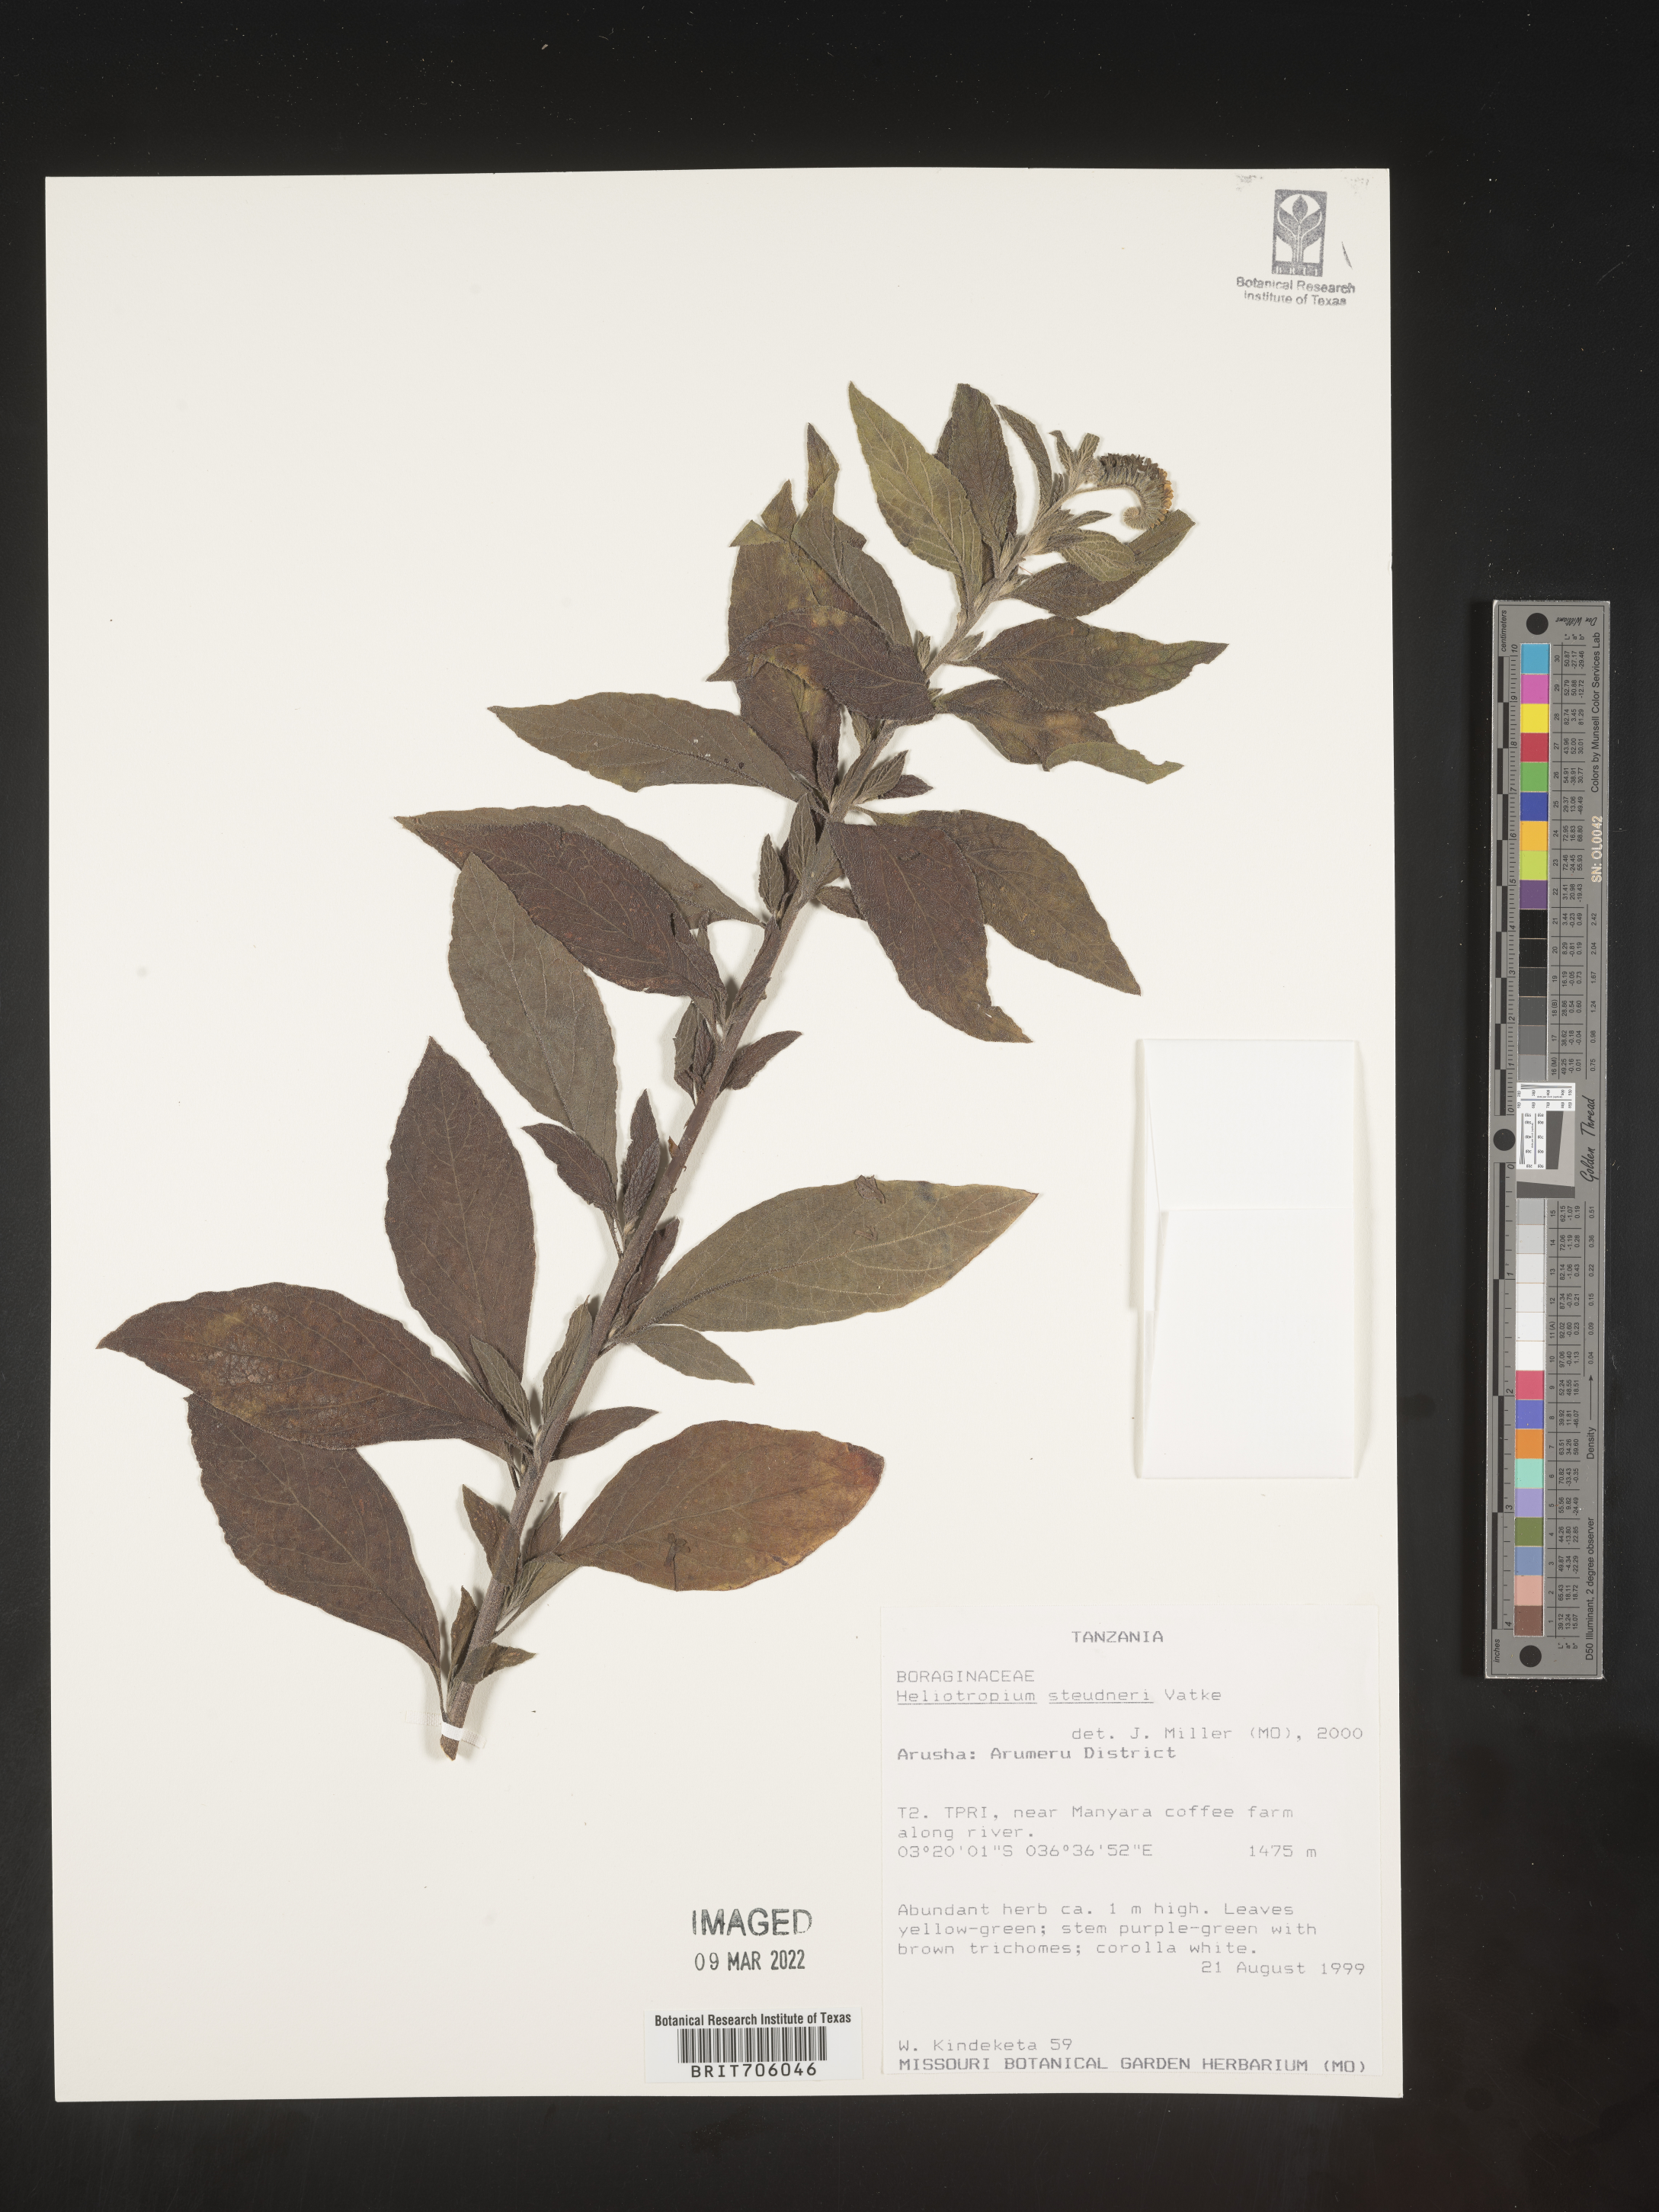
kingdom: Plantae
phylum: Tracheophyta
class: Magnoliopsida
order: Boraginales
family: Heliotropiaceae
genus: Heliotropium
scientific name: Heliotropium
